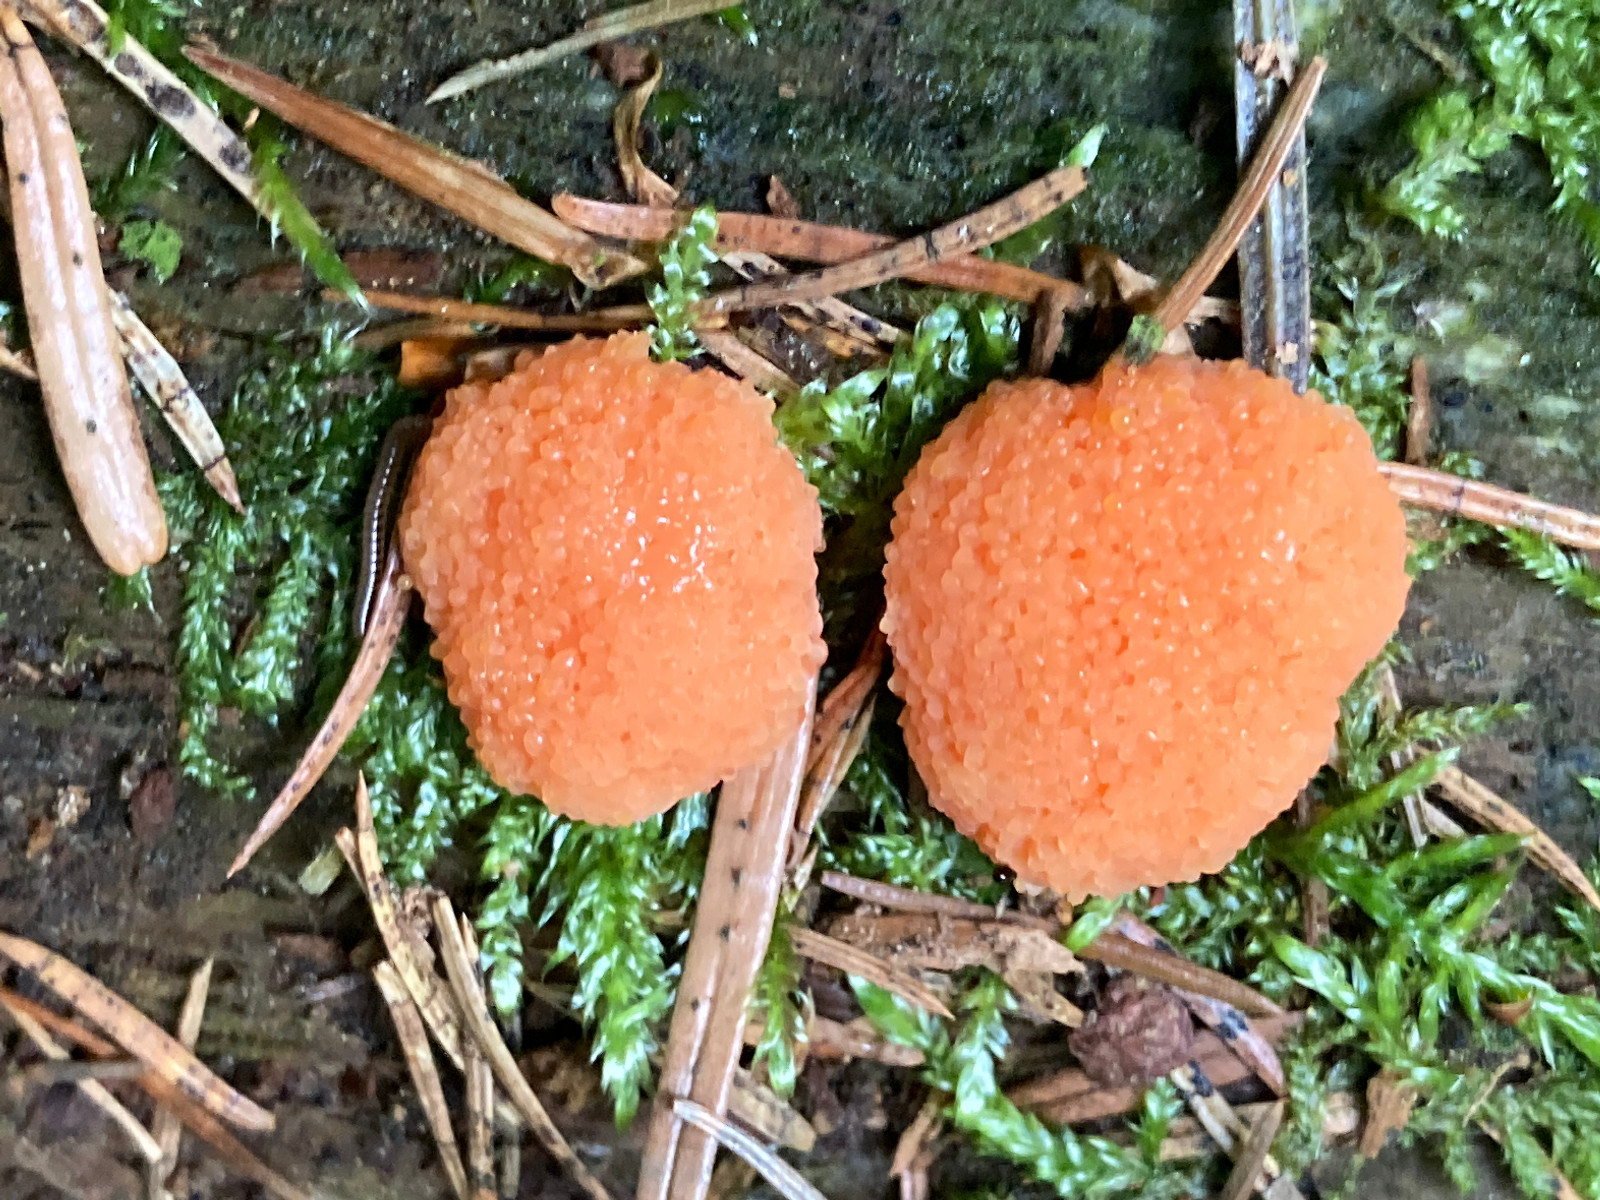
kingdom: Protozoa
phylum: Mycetozoa
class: Myxomycetes
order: Cribrariales
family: Tubiferaceae
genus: Tubifera
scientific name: Tubifera ferruginosa
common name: kanel-støvrør
